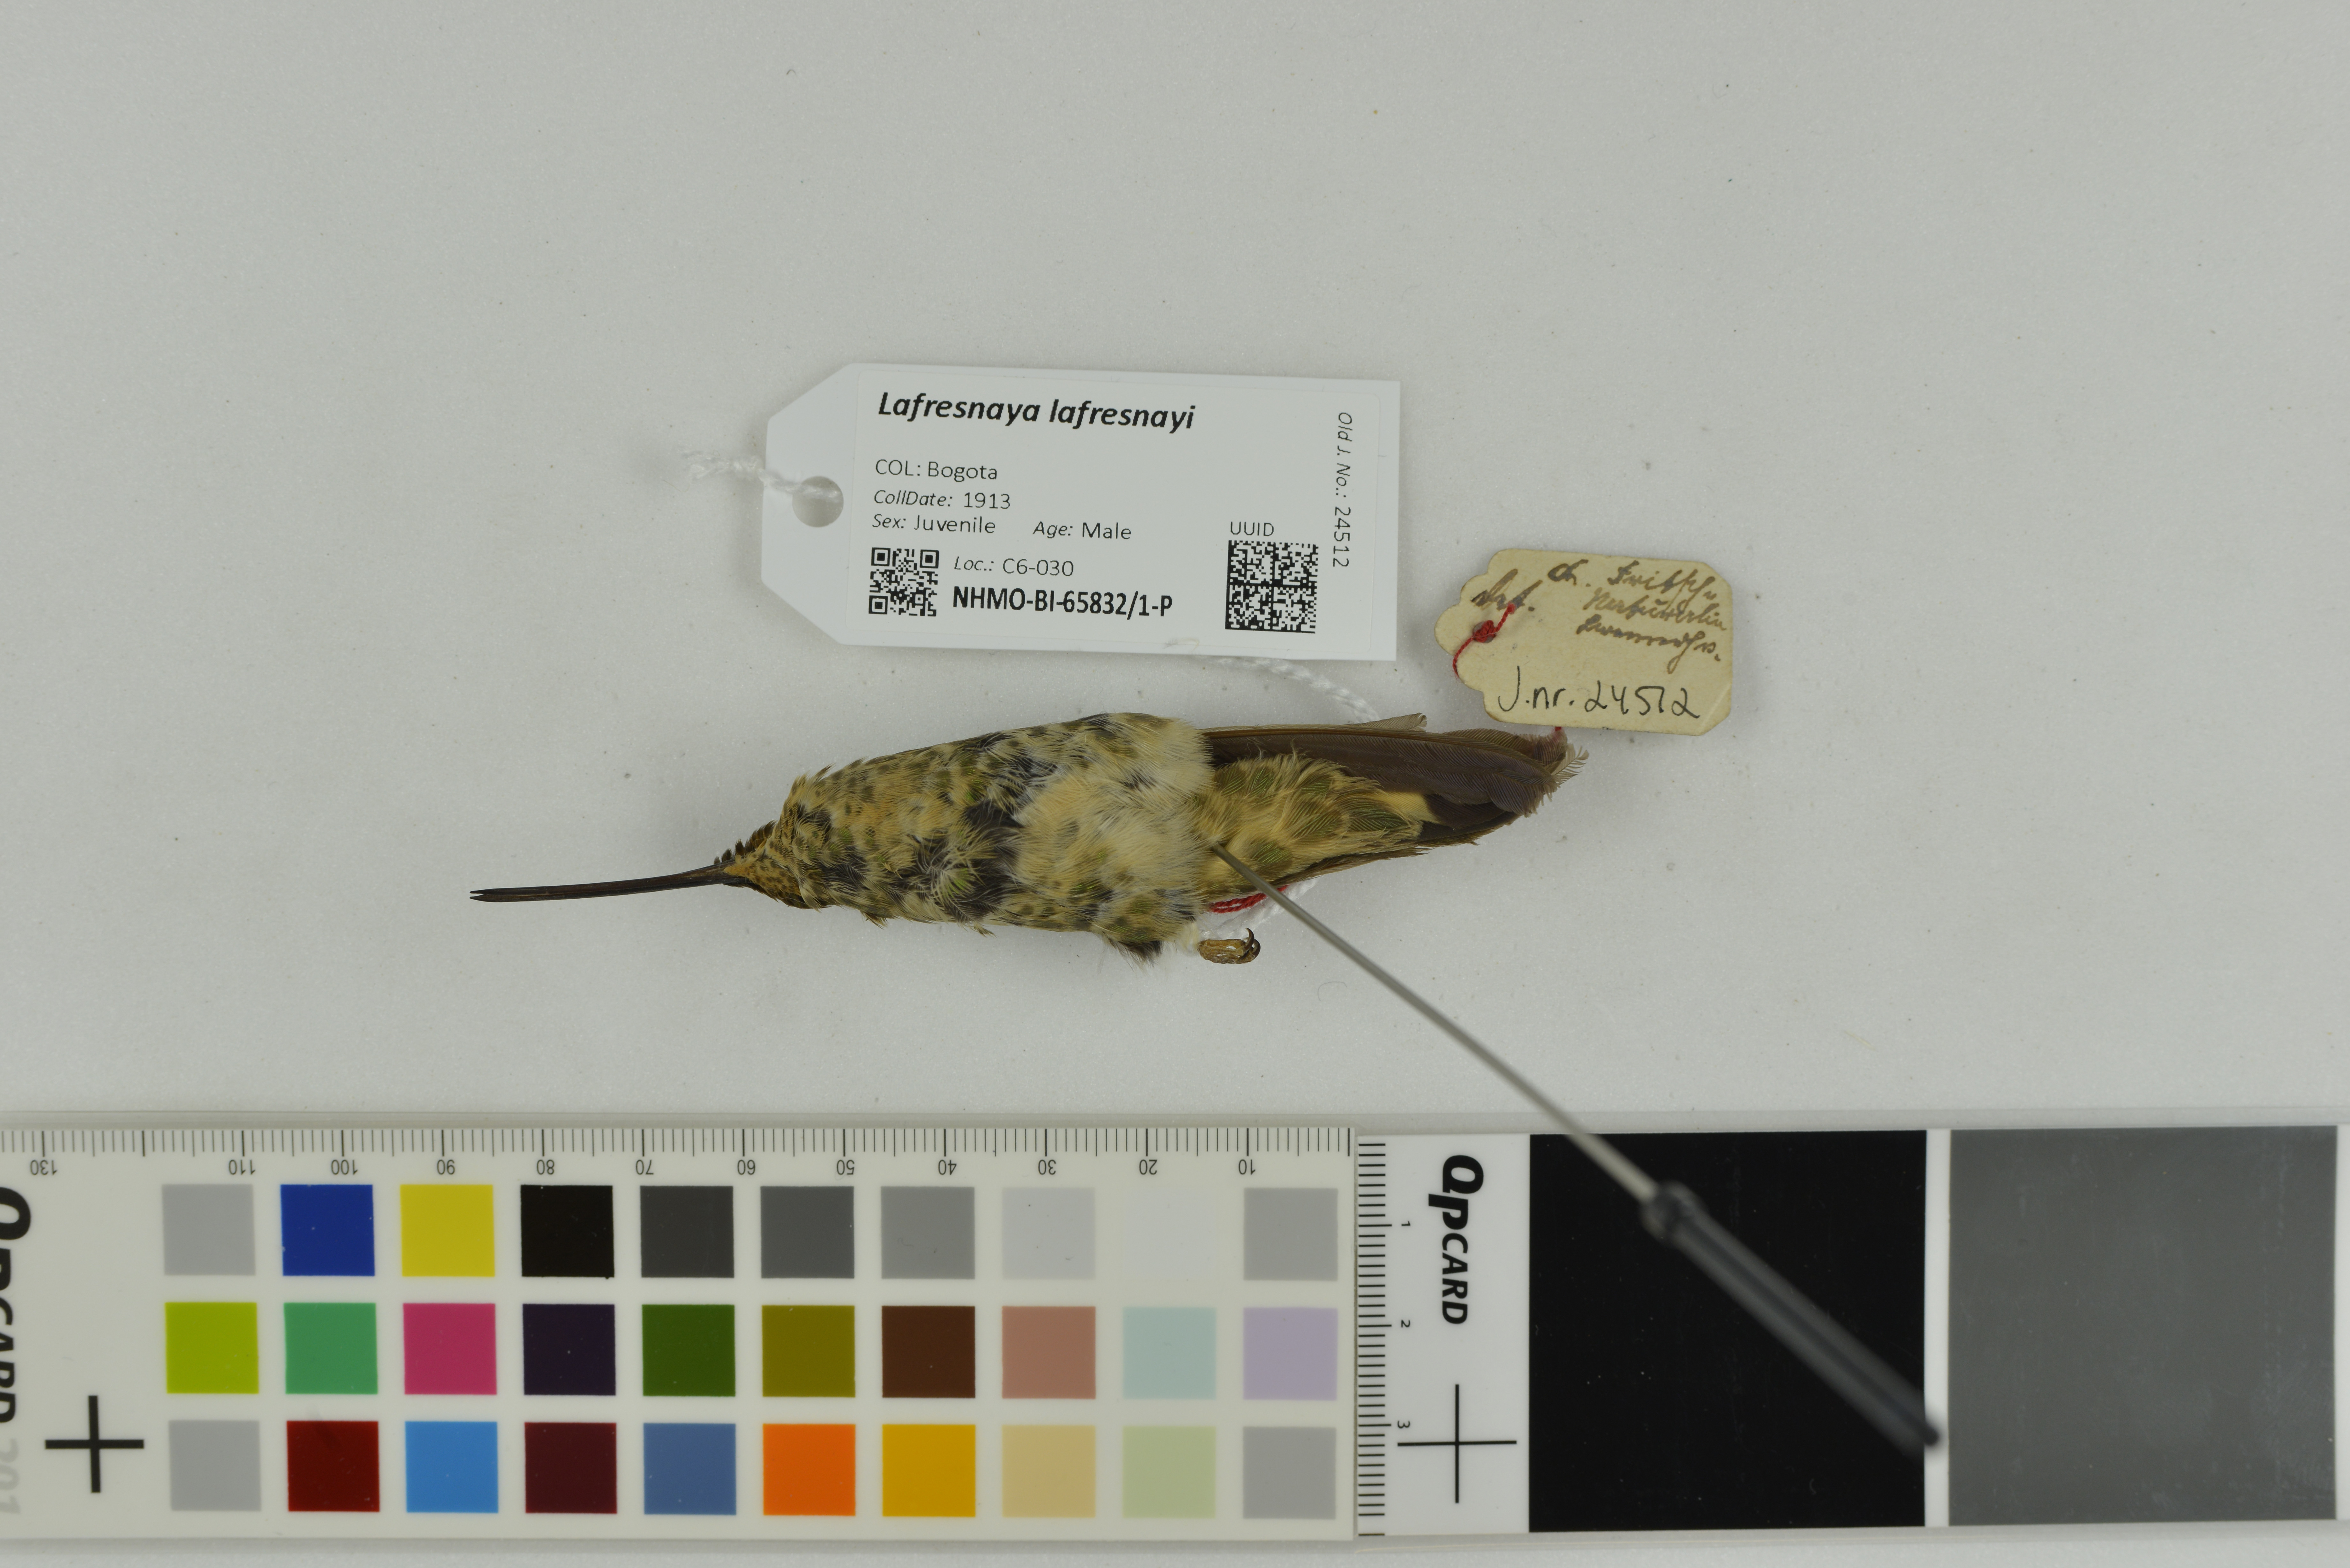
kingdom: Animalia
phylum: Chordata
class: Aves
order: Apodiformes
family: Trochilidae
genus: Lafresnaya
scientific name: Lafresnaya lafresnayi
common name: Mountain velvetbreast
